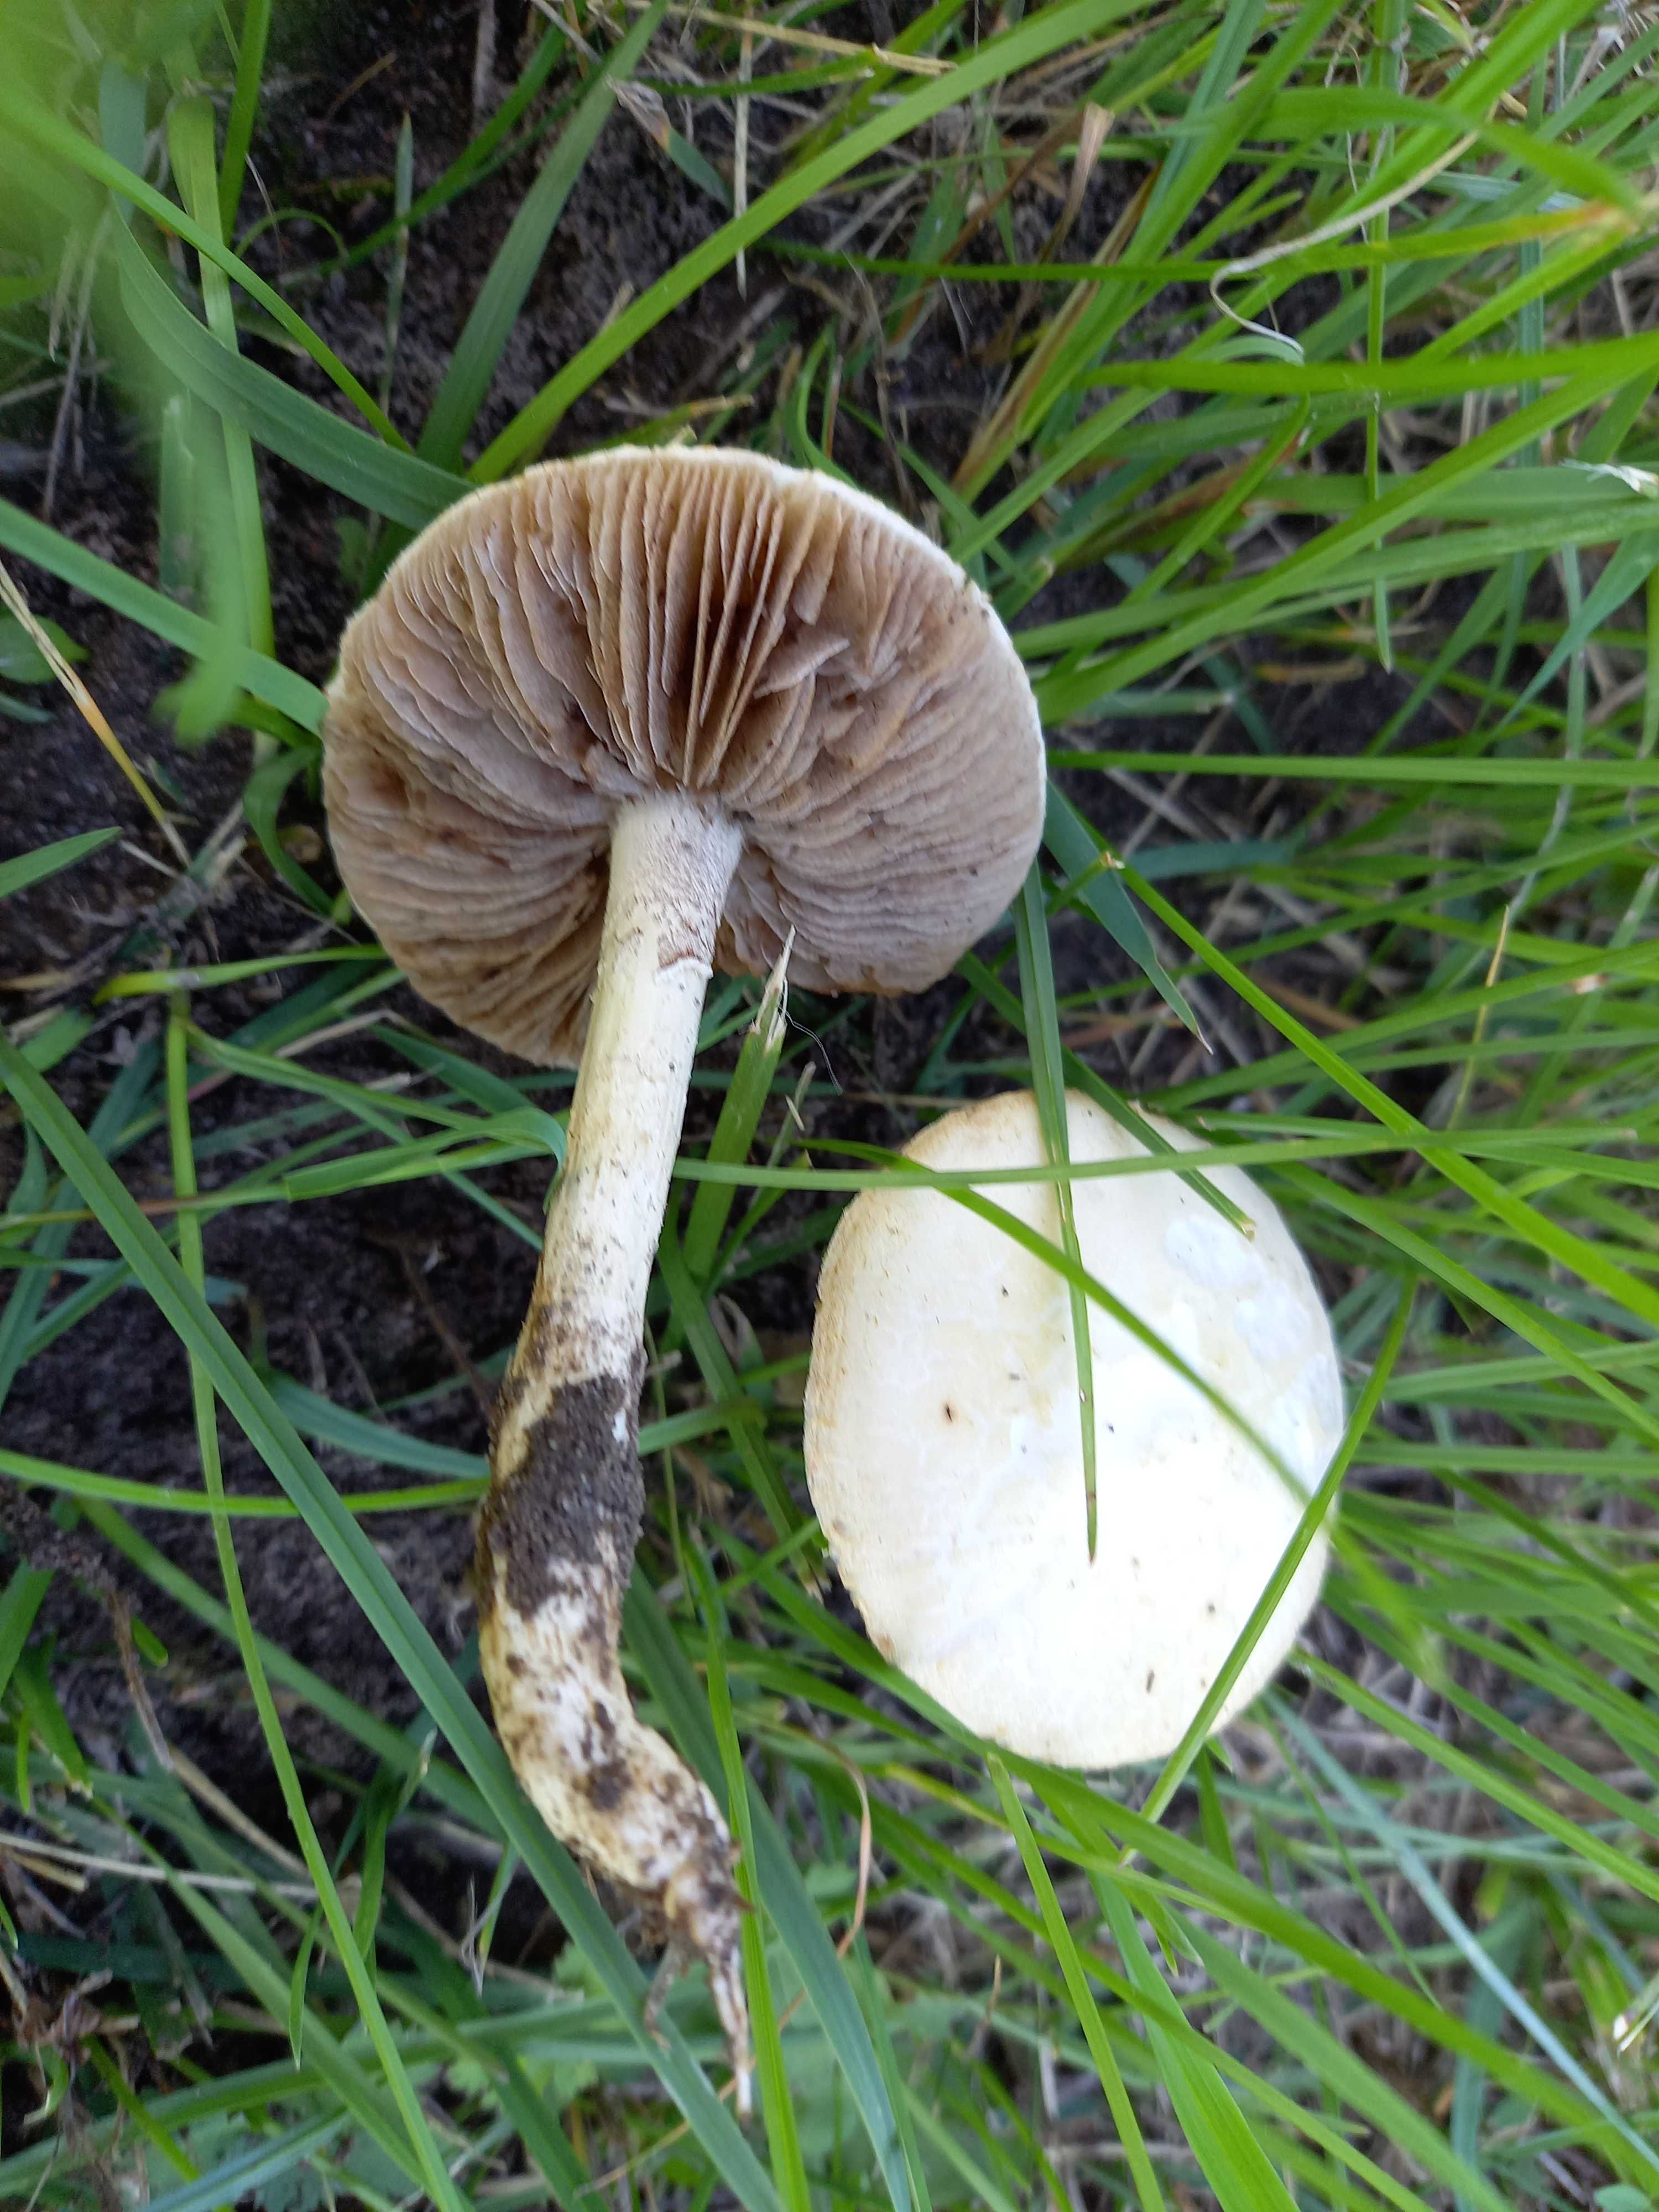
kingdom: Fungi
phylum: Basidiomycota
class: Agaricomycetes
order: Agaricales
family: Strophariaceae
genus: Agrocybe
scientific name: Agrocybe dura
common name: fastkødet agerhat
